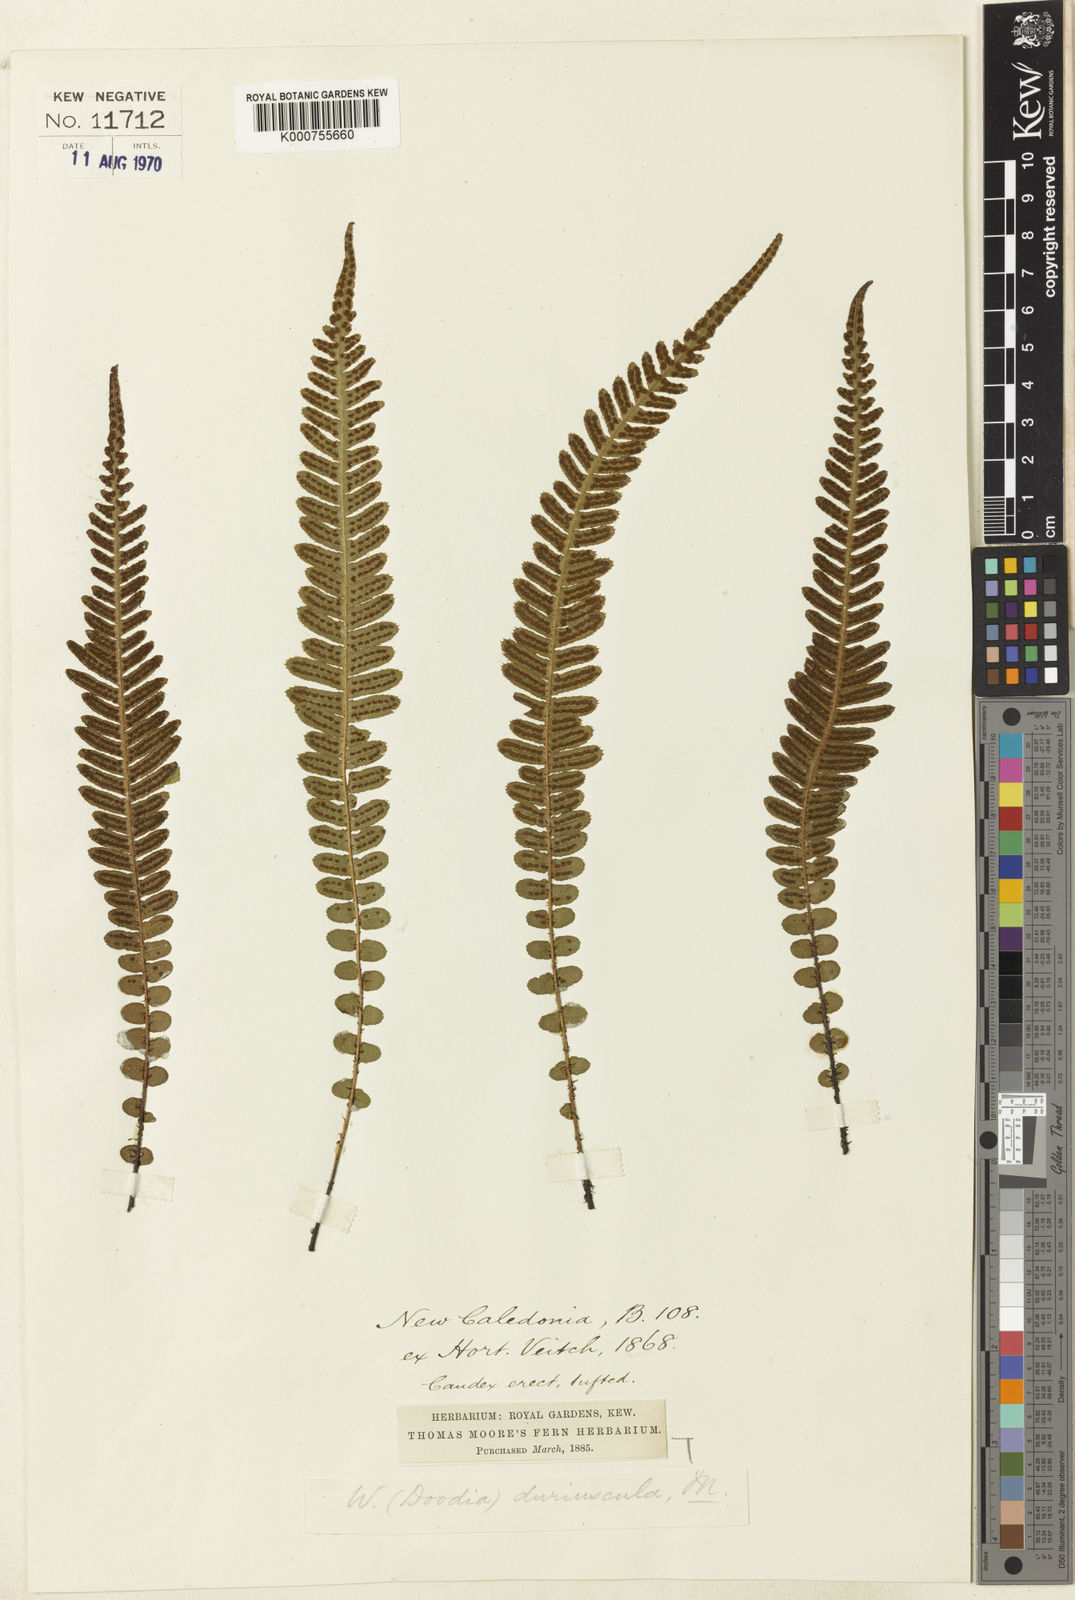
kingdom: Plantae
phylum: Tracheophyta
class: Polypodiopsida
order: Polypodiales
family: Blechnaceae
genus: Doodia
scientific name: Doodia media
